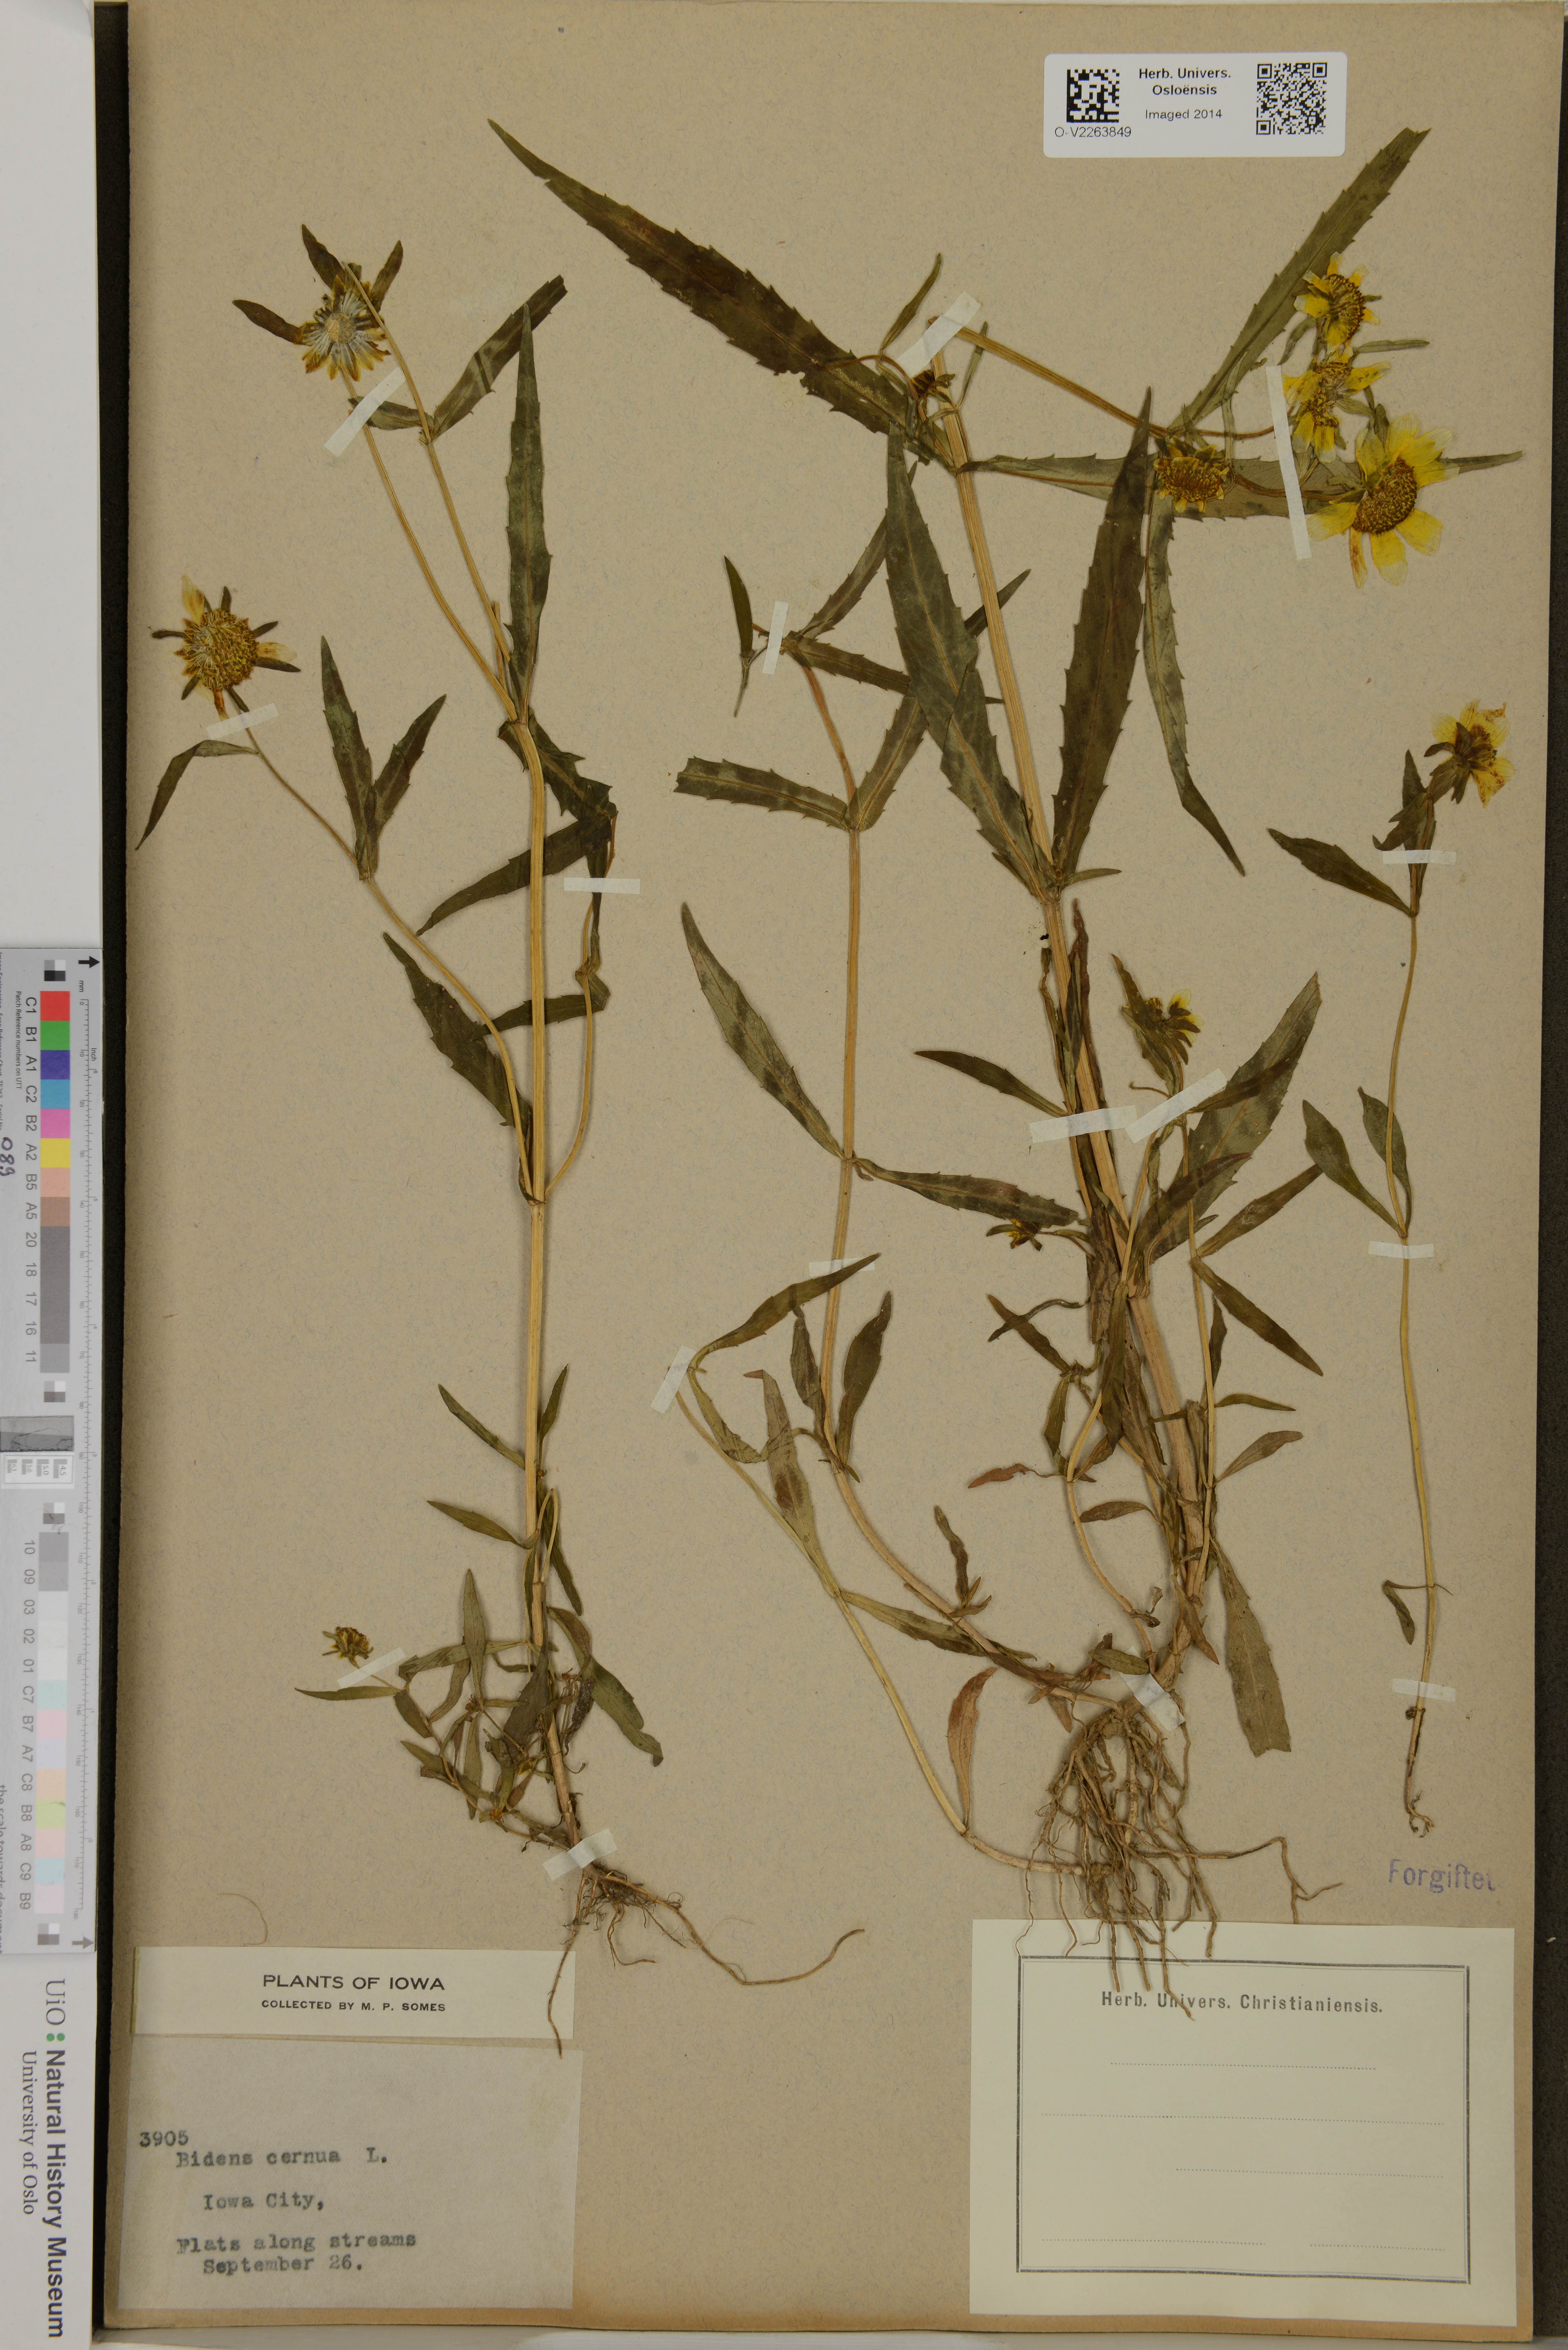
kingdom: Plantae
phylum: Tracheophyta
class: Magnoliopsida
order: Asterales
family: Asteraceae
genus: Bidens
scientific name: Bidens cernua
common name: Nodding bur-marigold
